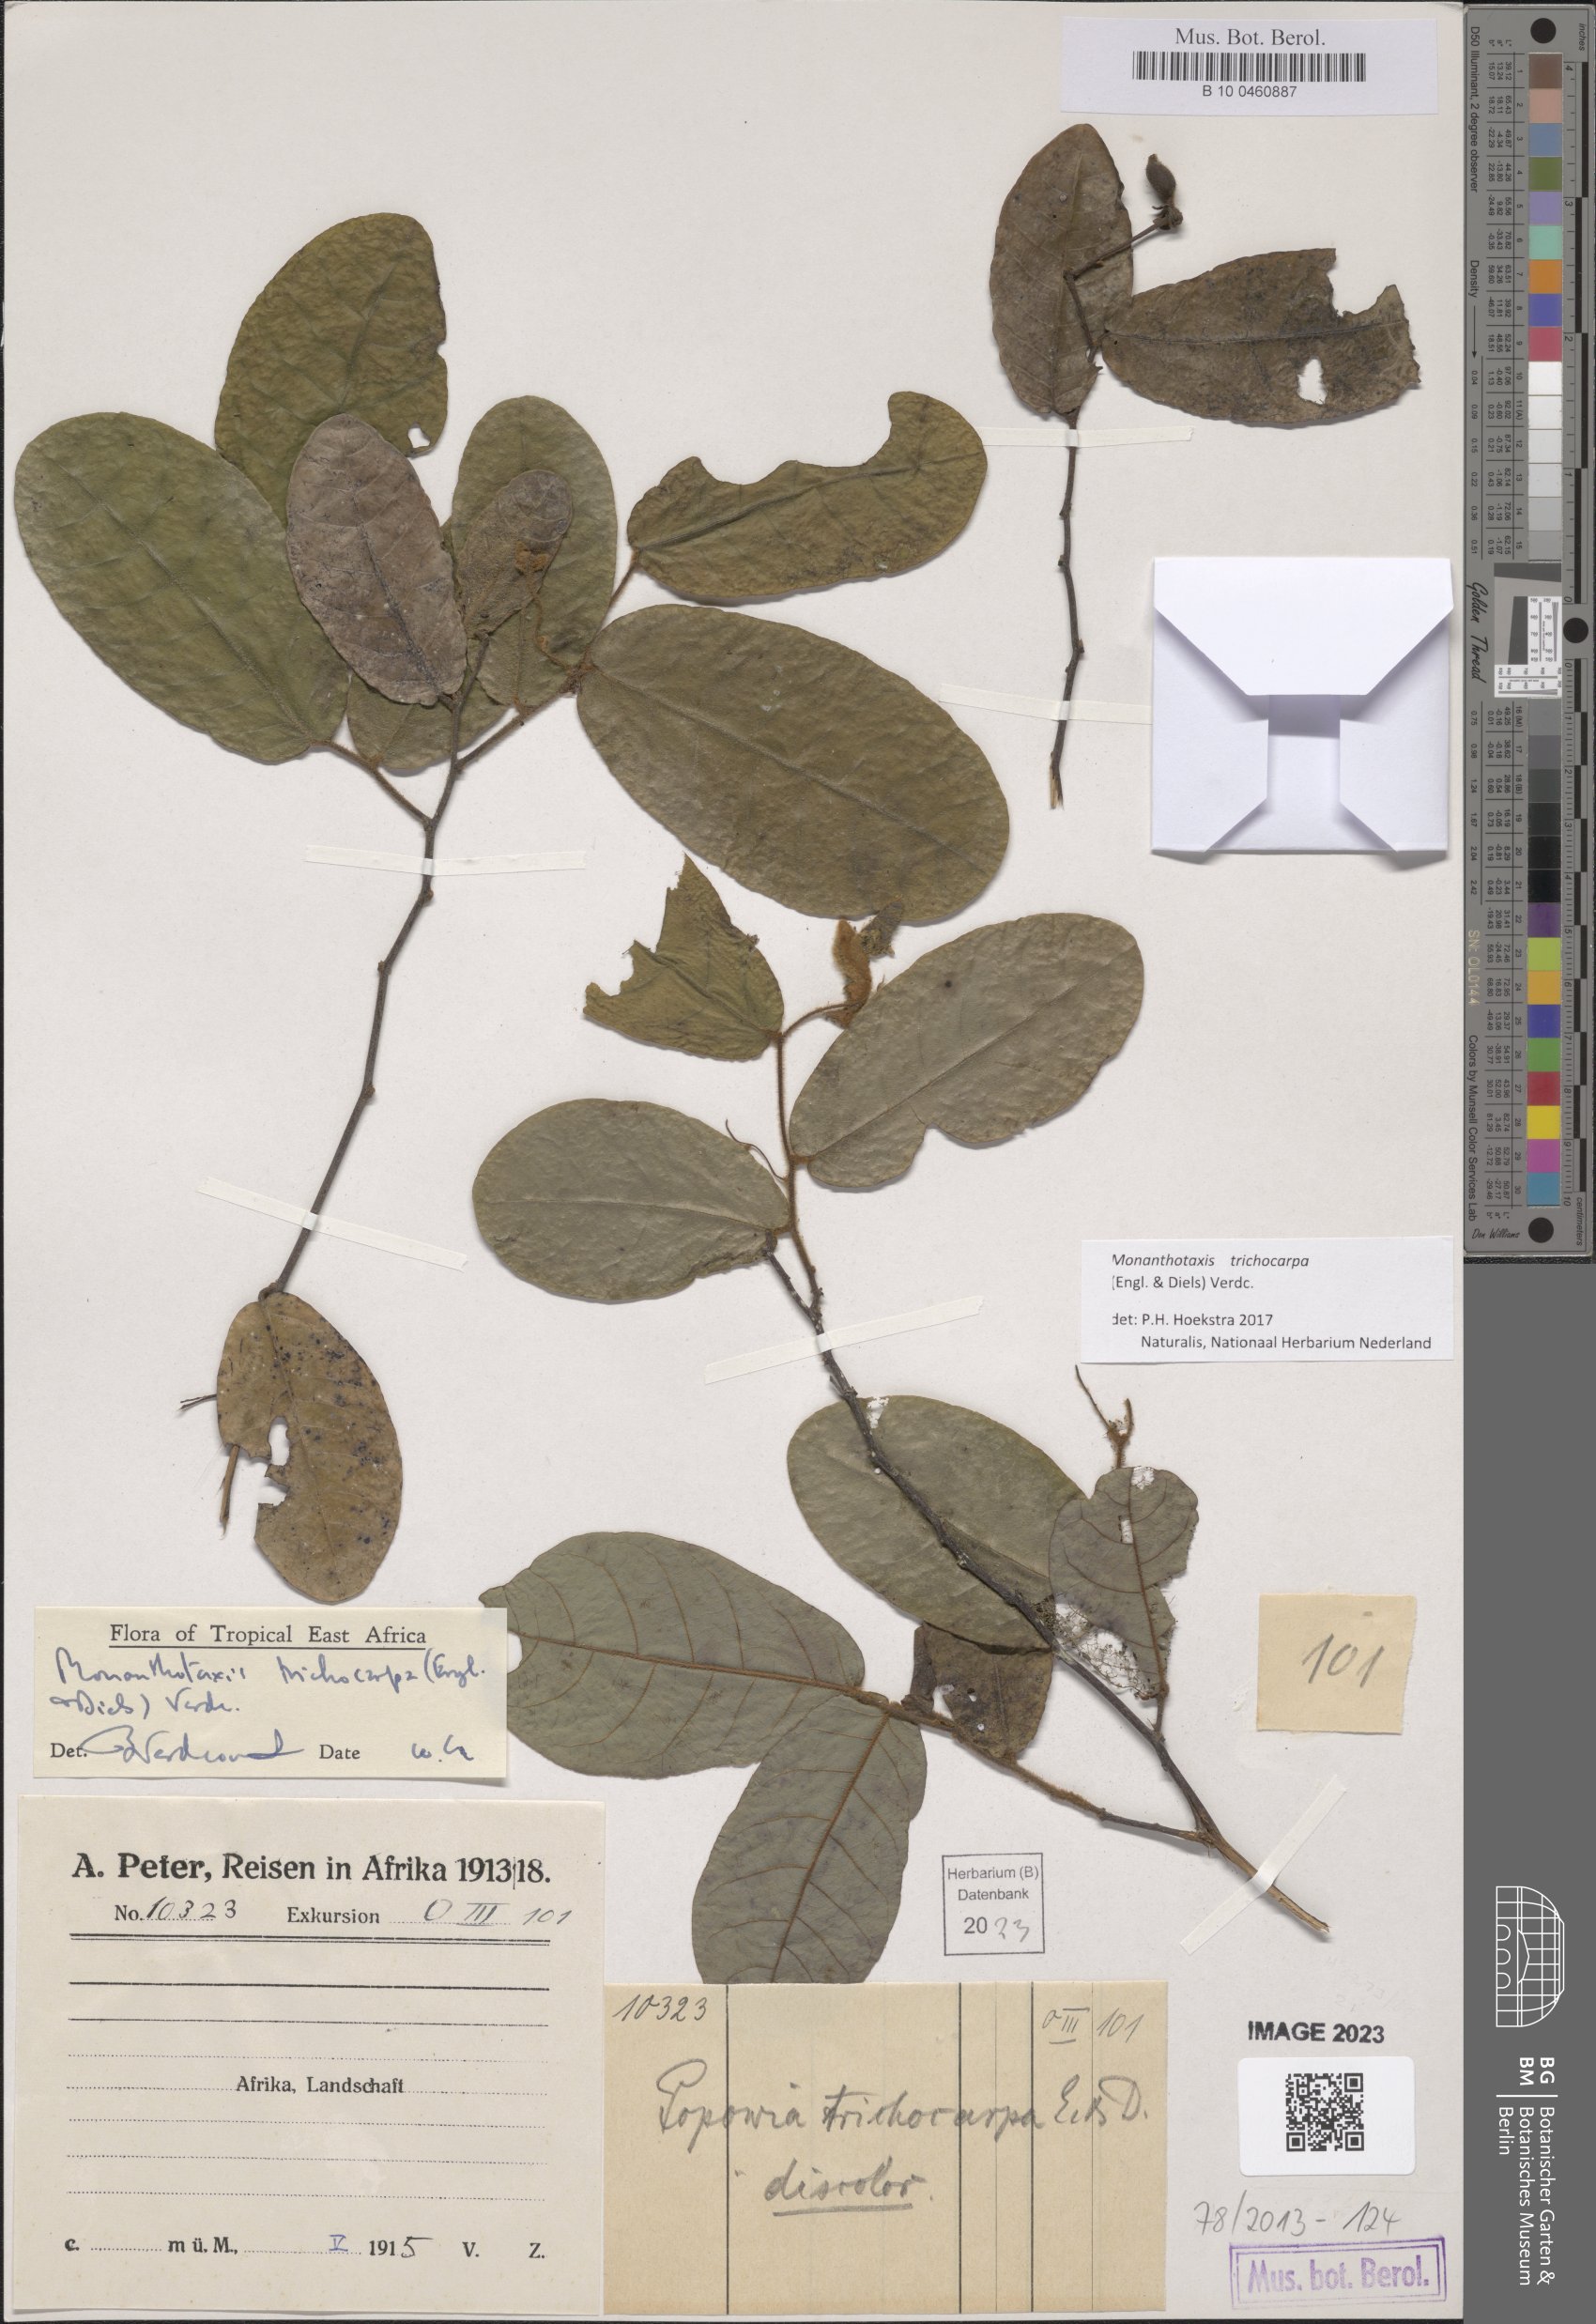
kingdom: Plantae
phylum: Tracheophyta
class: Magnoliopsida
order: Magnoliales
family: Annonaceae
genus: Monanthotaxis
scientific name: Monanthotaxis trichocarpa
